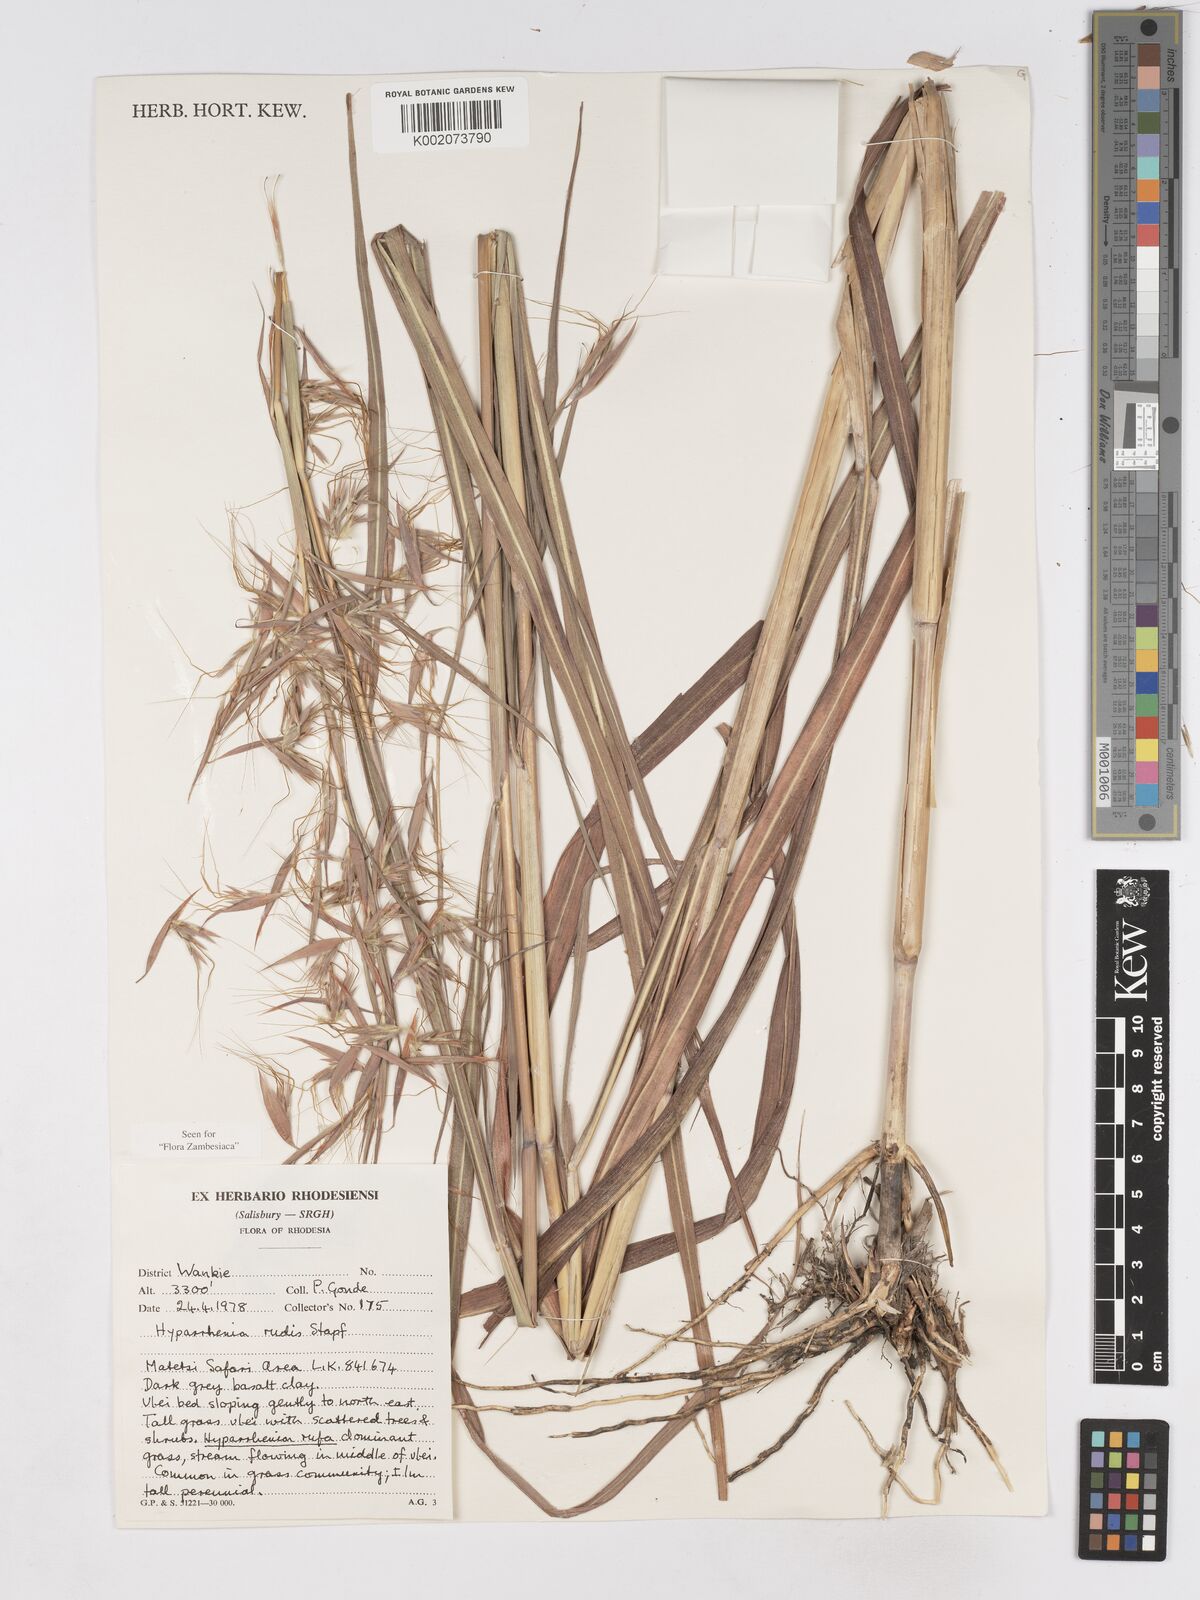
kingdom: Plantae
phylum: Tracheophyta
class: Liliopsida
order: Poales
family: Poaceae
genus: Hyparrhenia
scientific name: Hyparrhenia rudis
